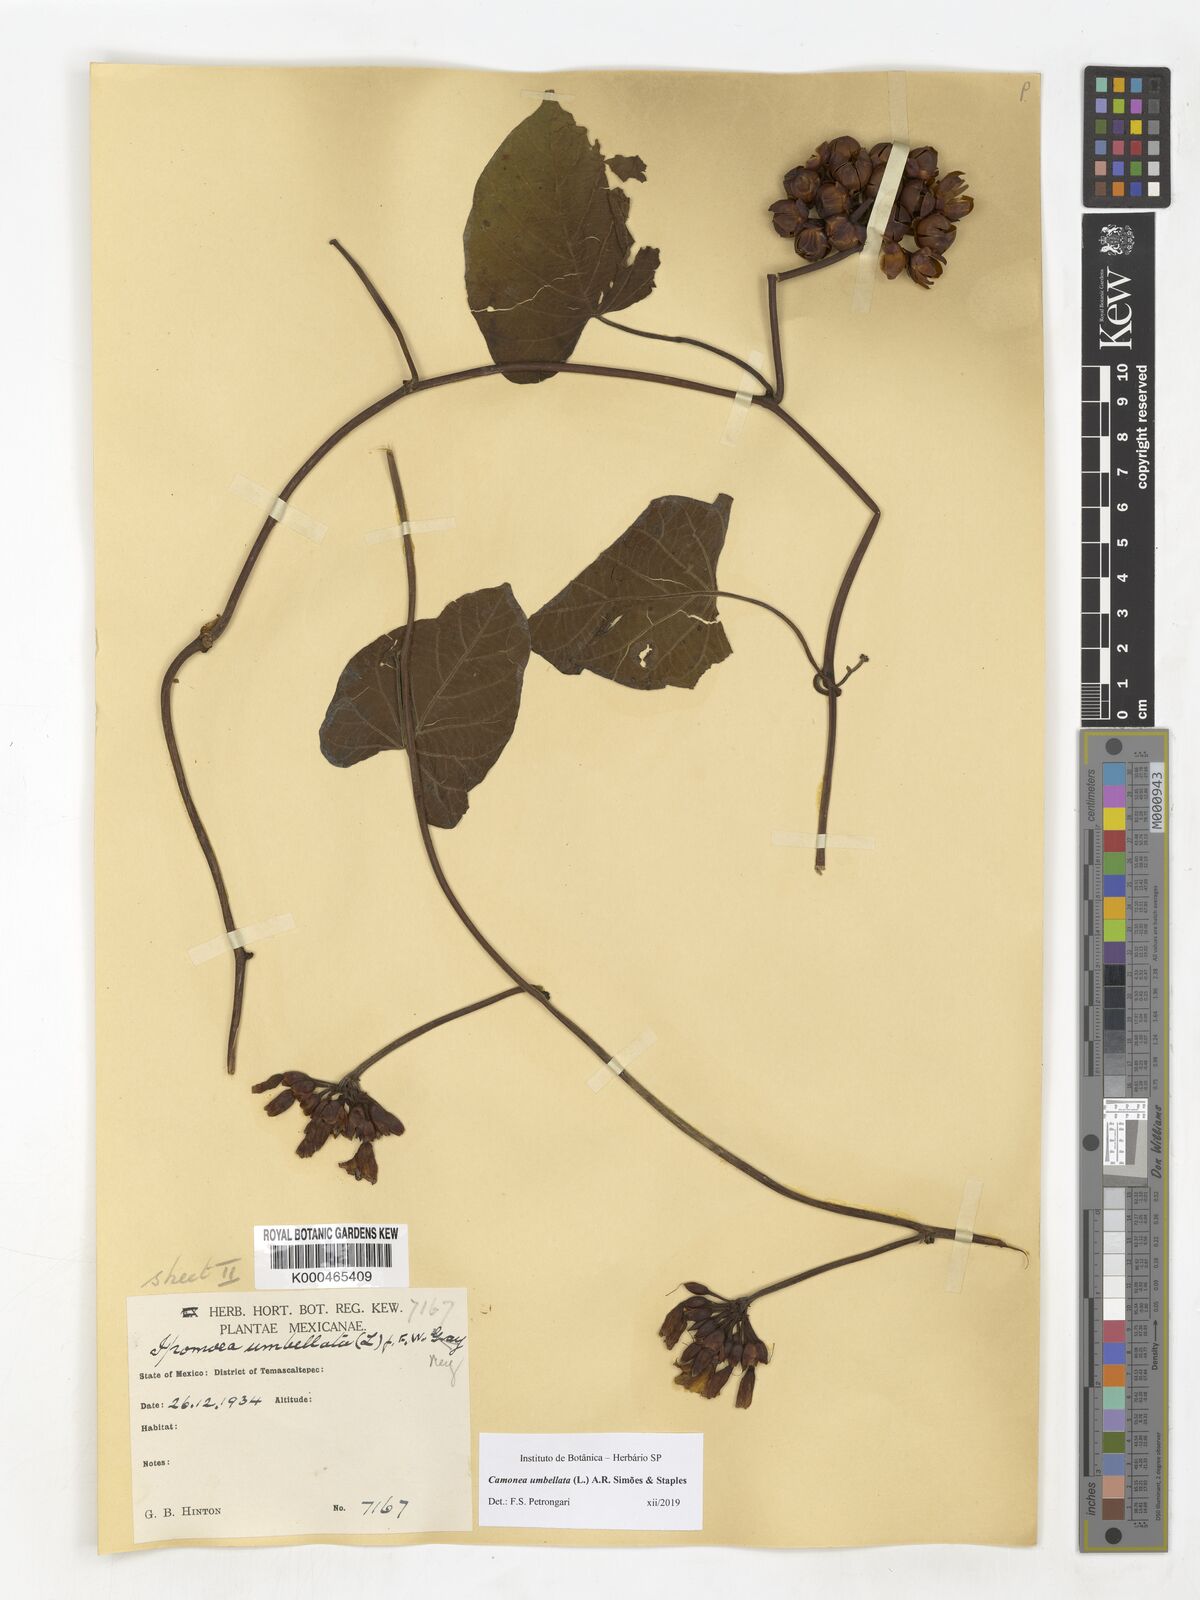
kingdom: Plantae
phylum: Tracheophyta
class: Magnoliopsida
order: Solanales
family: Convolvulaceae
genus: Camonea
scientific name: Camonea umbellata
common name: Hogvine
